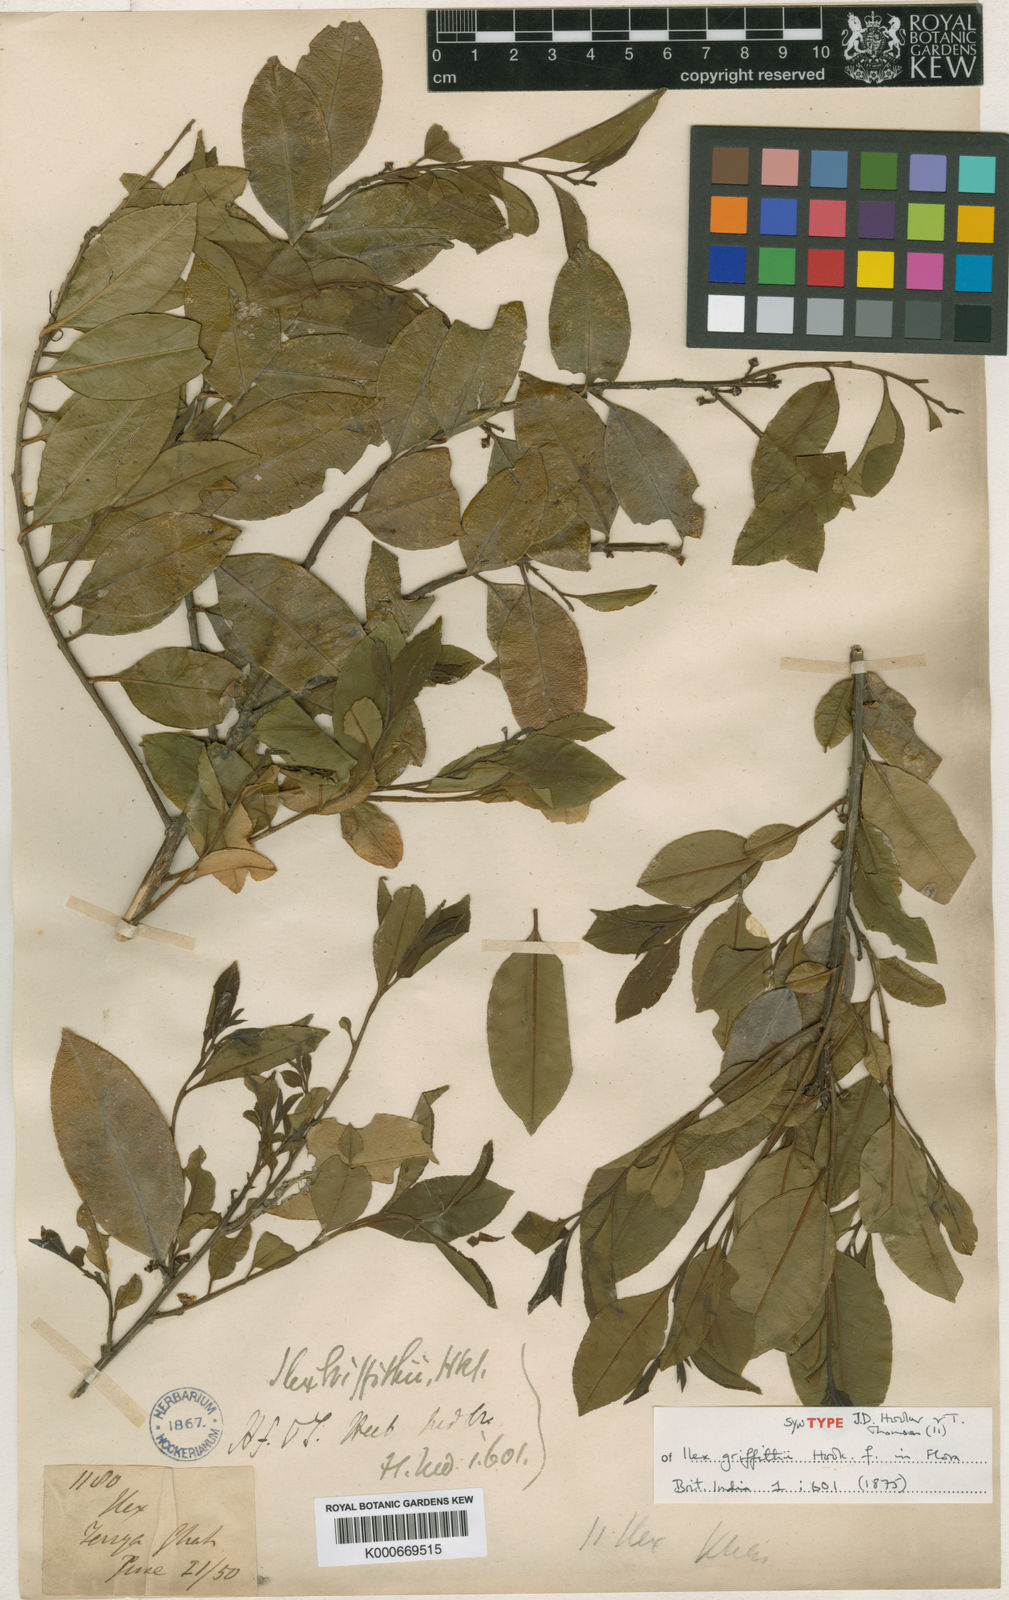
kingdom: Plantae
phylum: Tracheophyta
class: Magnoliopsida
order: Aquifoliales
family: Aquifoliaceae
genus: Ilex
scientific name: Ilex triflora
